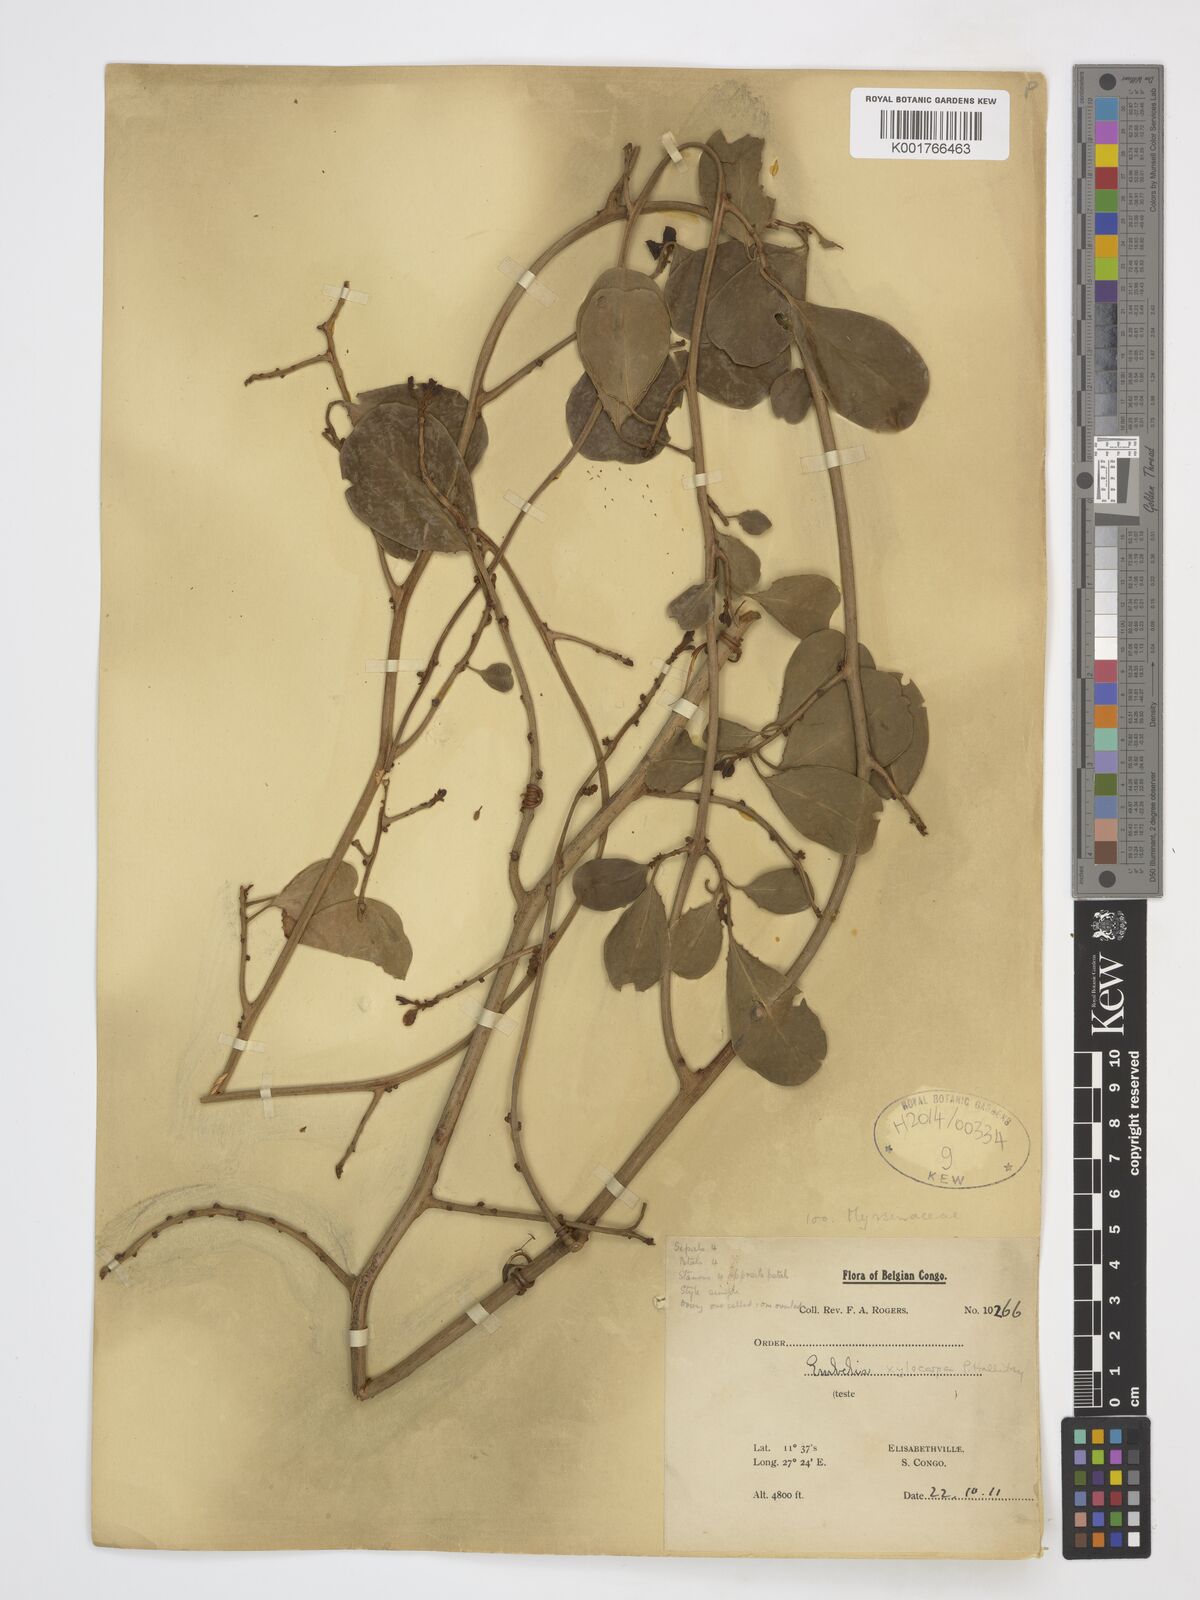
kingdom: Plantae
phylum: Tracheophyta
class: Magnoliopsida
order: Ericales
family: Primulaceae
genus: Embelia
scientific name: Embelia xylocarpa
